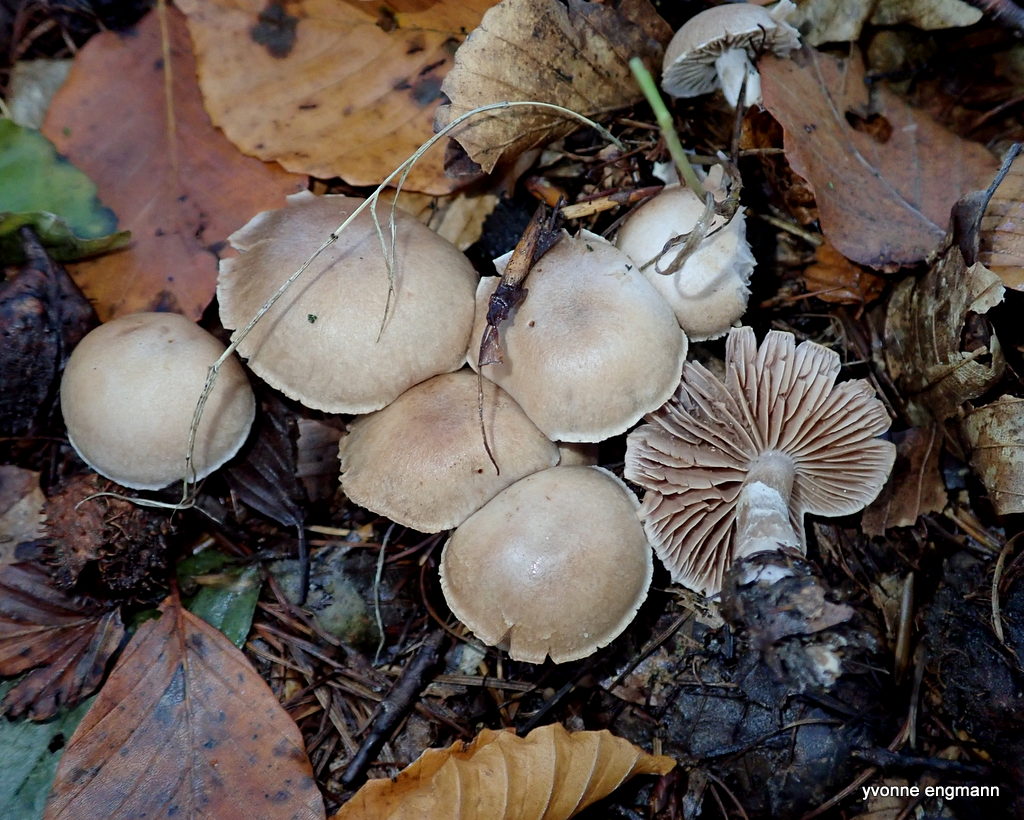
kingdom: Fungi
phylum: Basidiomycota
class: Agaricomycetes
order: Agaricales
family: Cortinariaceae
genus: Cortinarius
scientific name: Cortinarius
